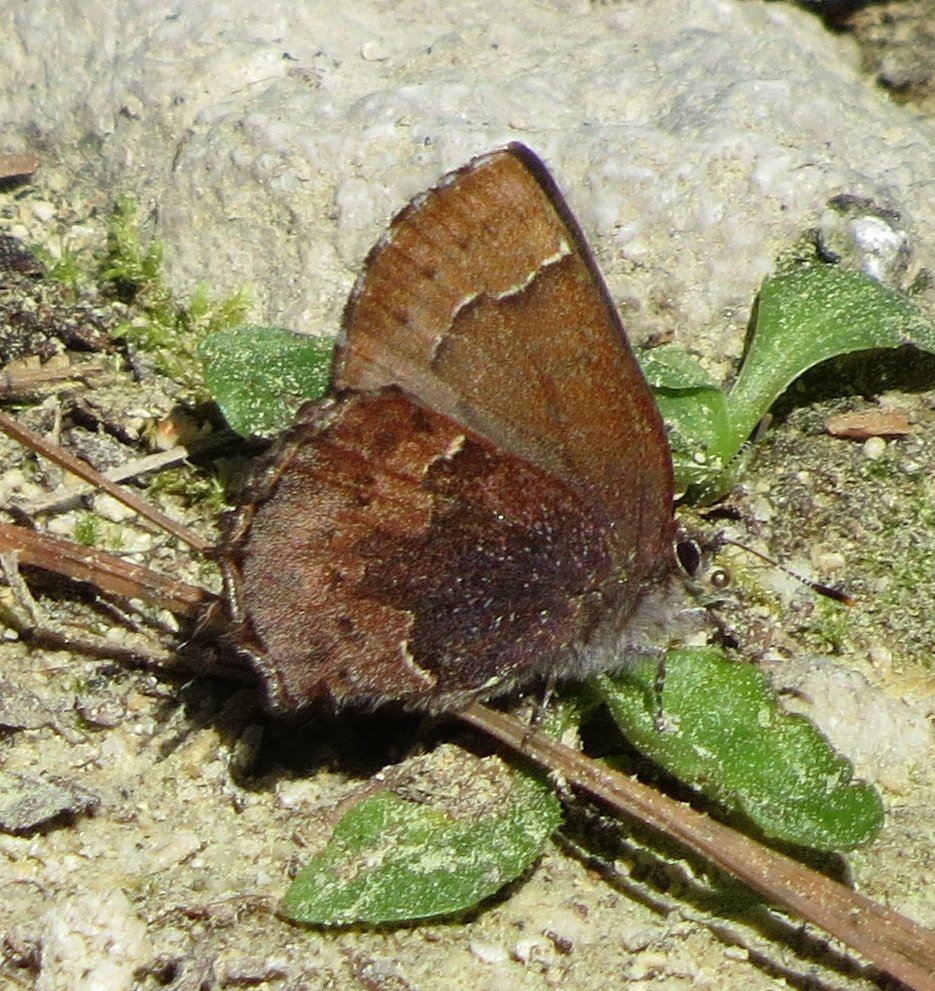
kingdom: Animalia
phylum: Arthropoda
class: Insecta
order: Lepidoptera
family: Lycaenidae
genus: Incisalia
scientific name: Incisalia henrici
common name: Henry's Elfin
